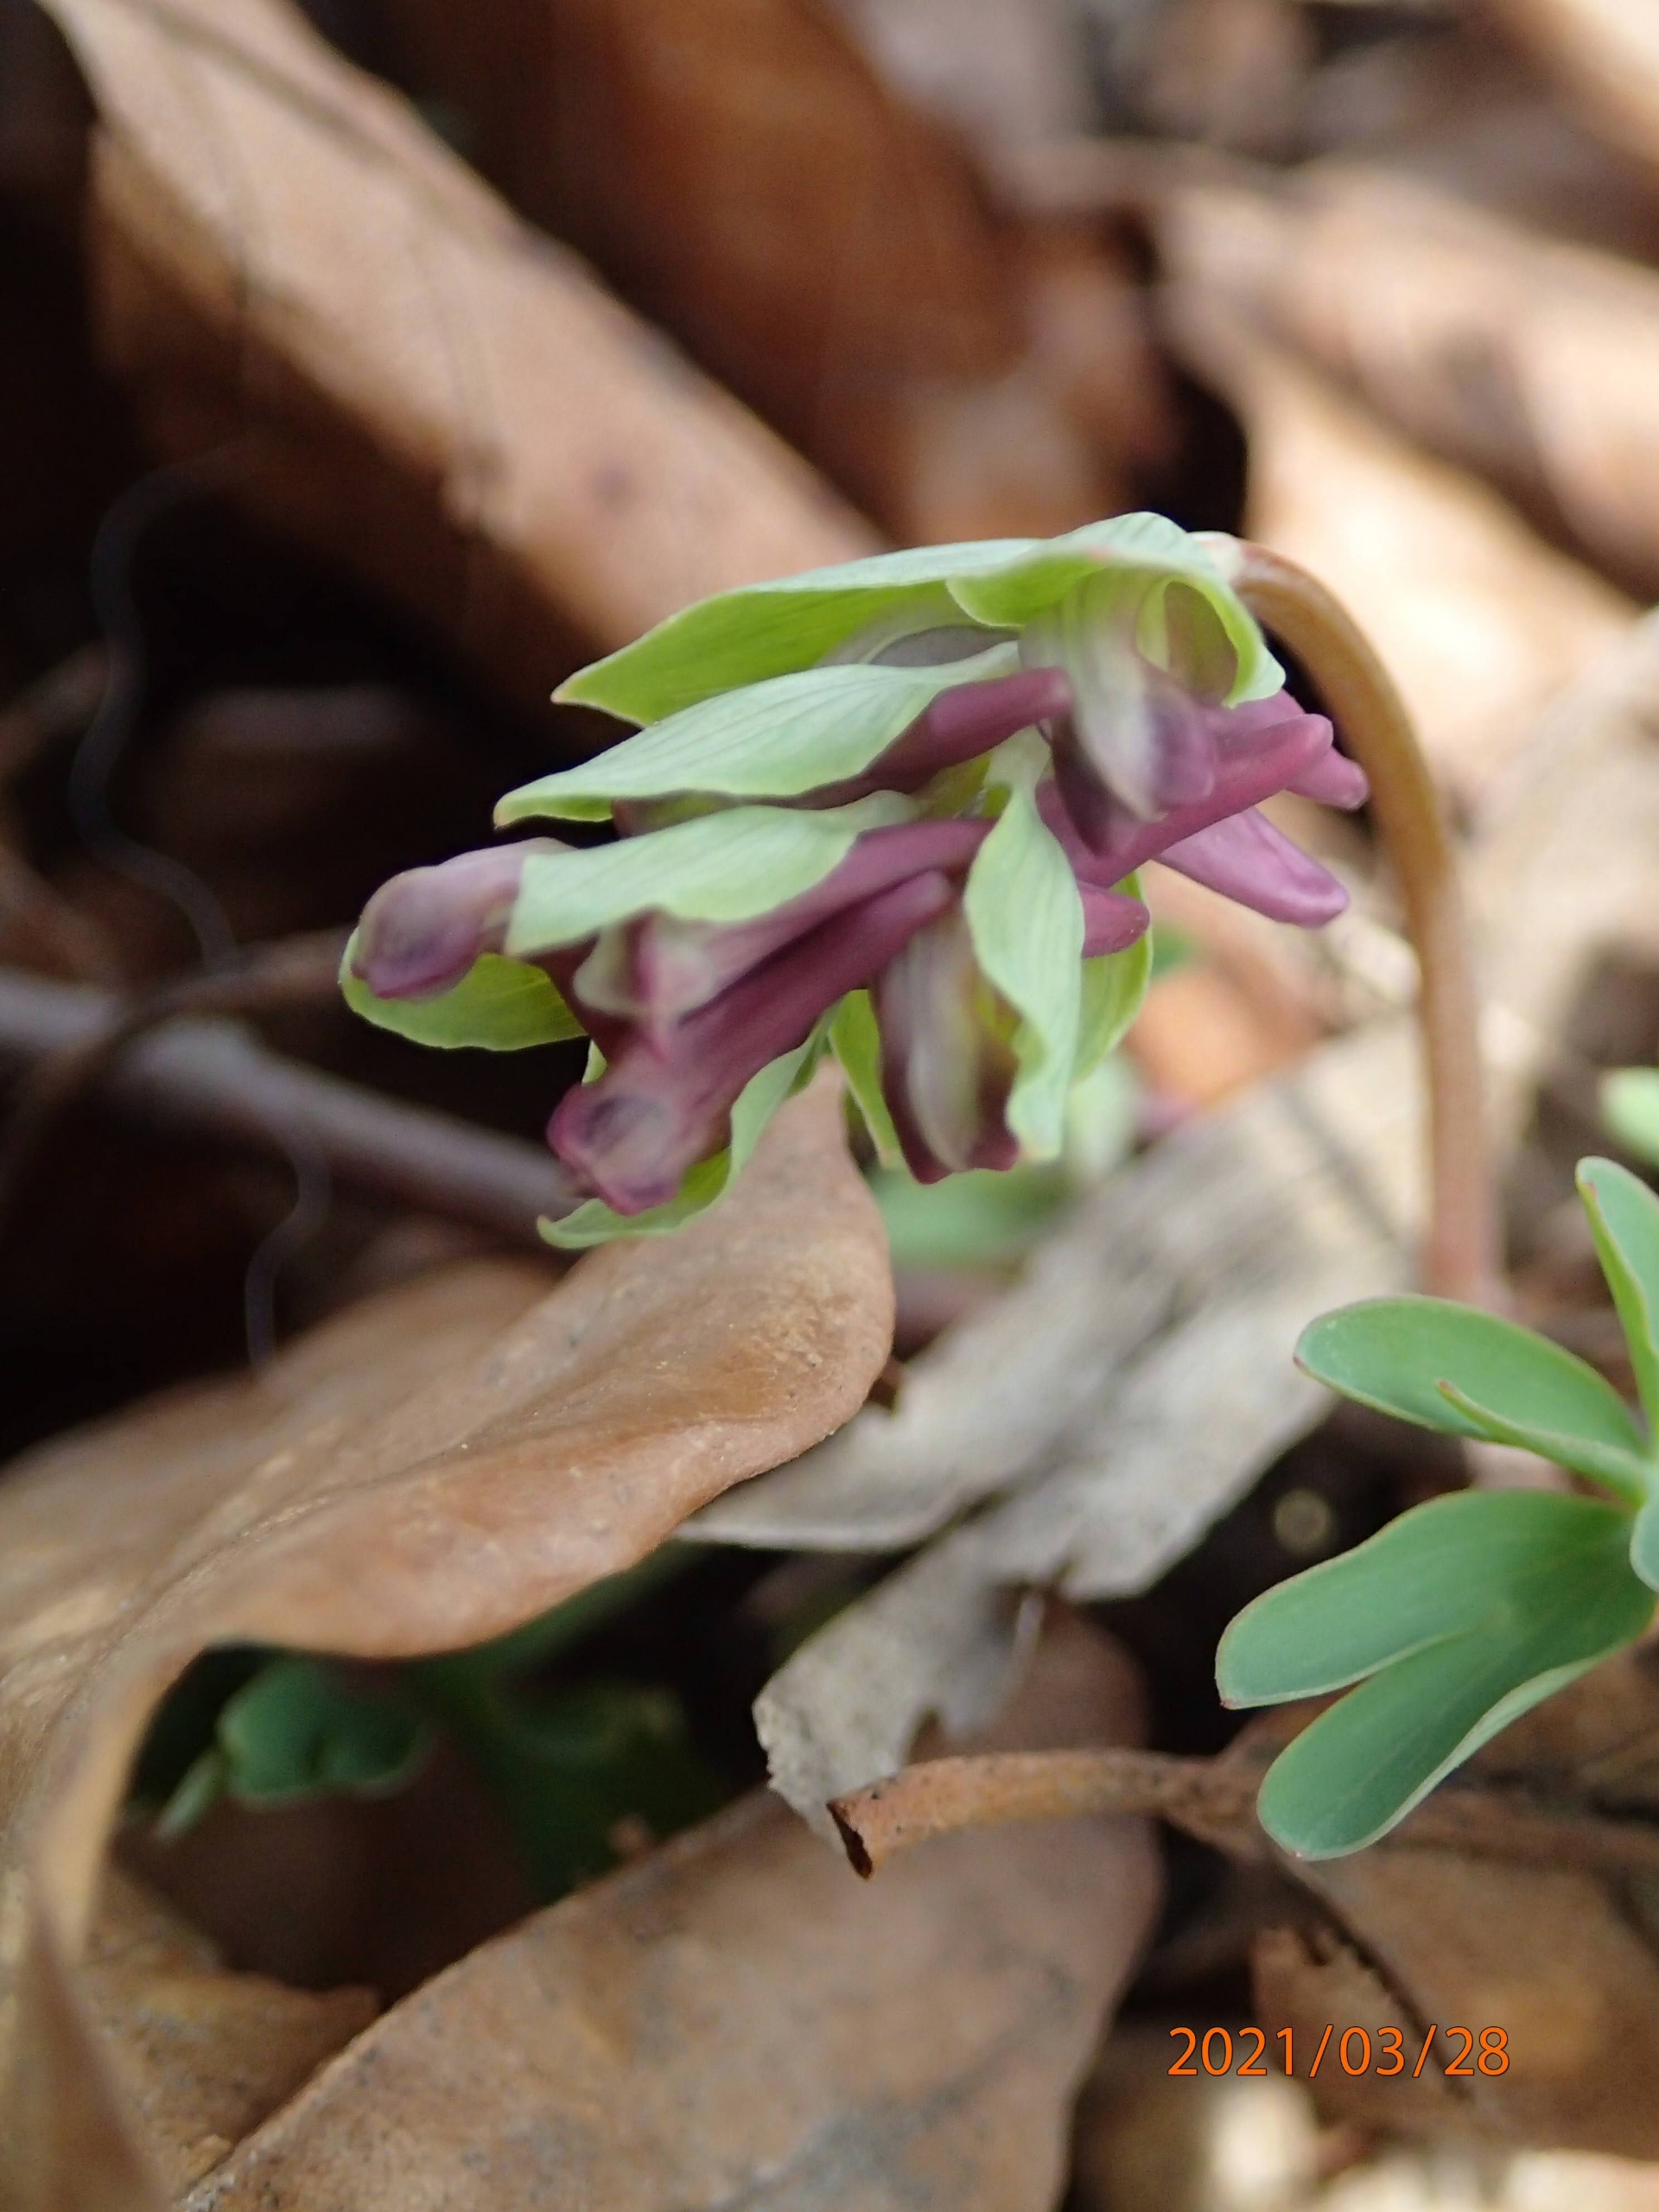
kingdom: Plantae
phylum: Tracheophyta
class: Magnoliopsida
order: Ranunculales
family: Papaveraceae
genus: Corydalis
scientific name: Corydalis intermedia
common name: Liden lærkespore
